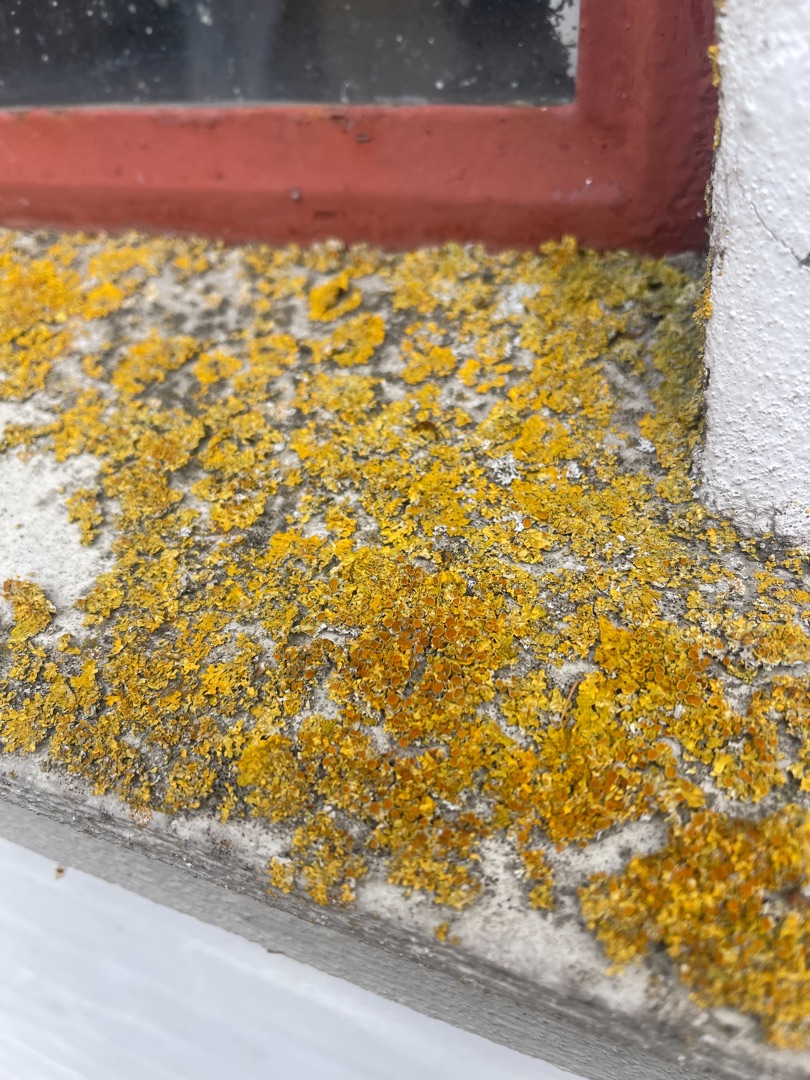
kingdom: Fungi
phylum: Ascomycota
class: Lecanoromycetes
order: Teloschistales
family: Teloschistaceae
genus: Xanthoria
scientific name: Xanthoria parietina
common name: Almindelig væggelav
